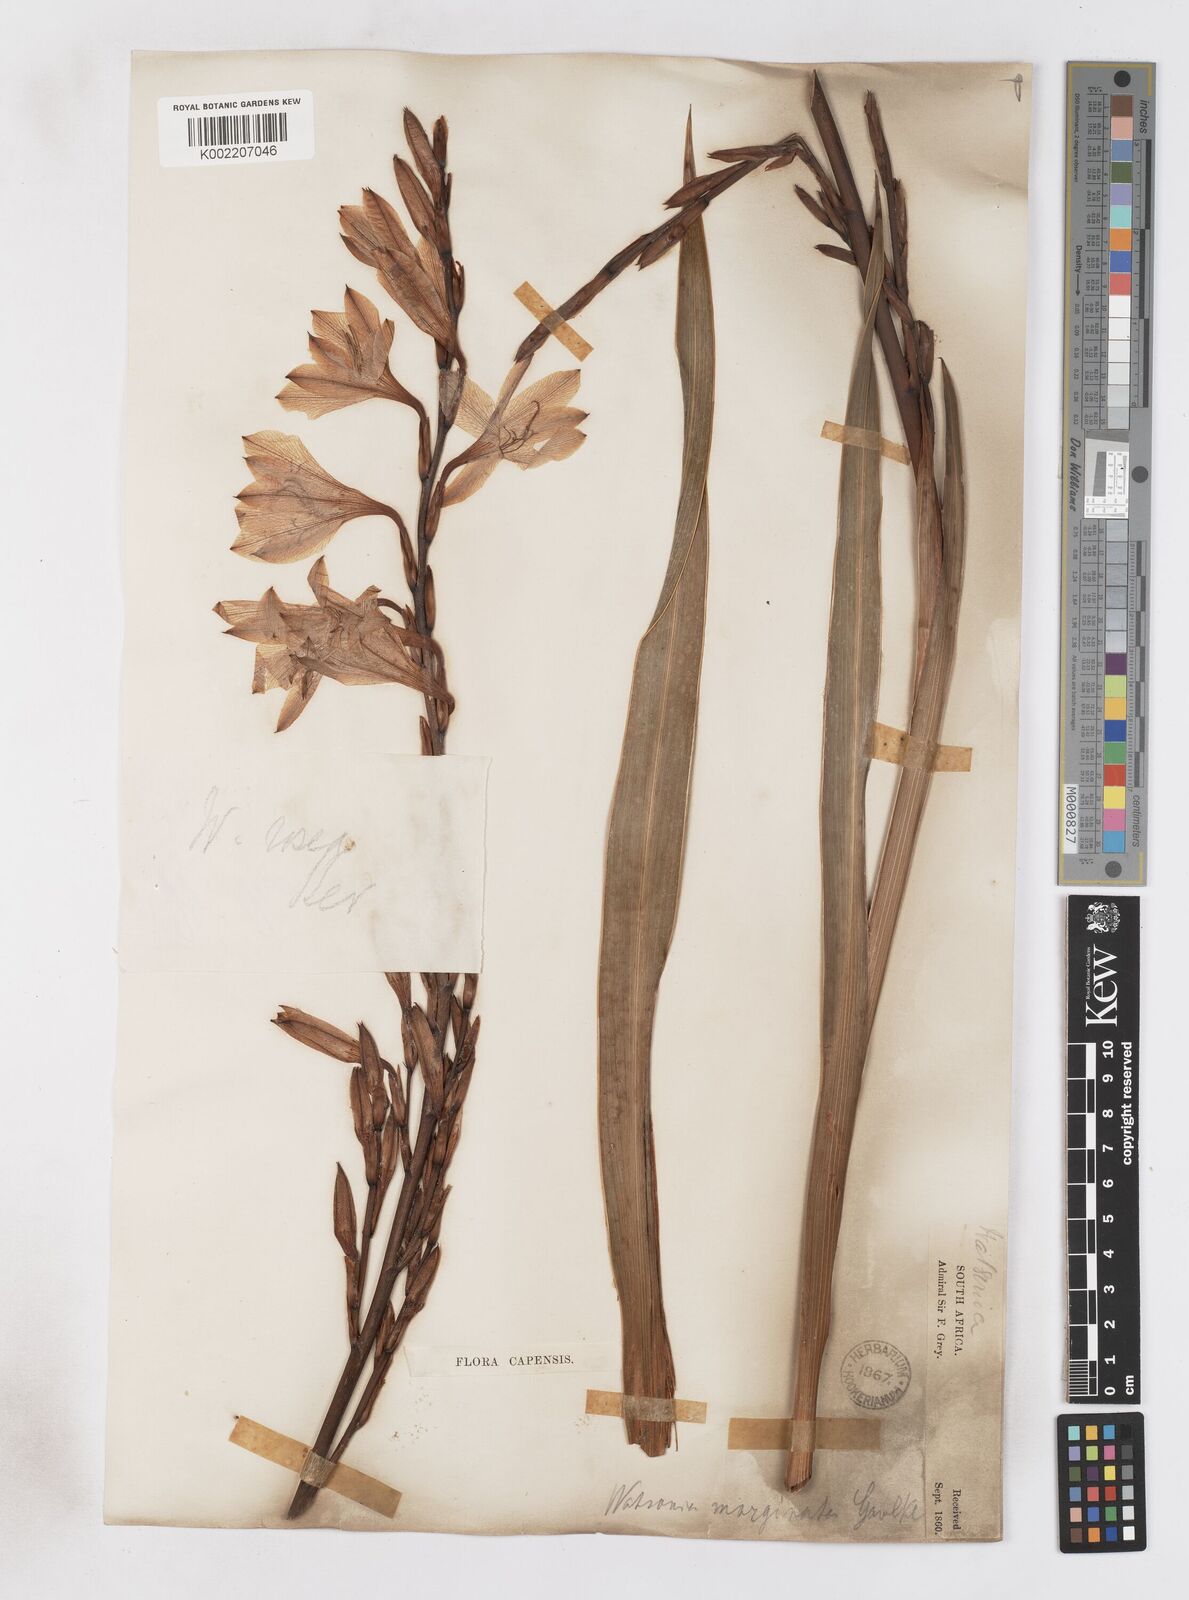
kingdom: Plantae
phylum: Tracheophyta
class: Liliopsida
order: Asparagales
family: Iridaceae
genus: Watsonia
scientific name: Watsonia borbonica
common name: Bugle-lily
